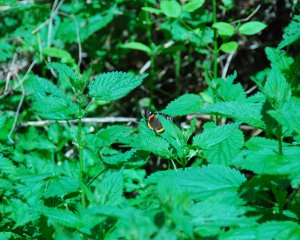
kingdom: Animalia
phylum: Arthropoda
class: Insecta
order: Lepidoptera
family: Nymphalidae
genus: Vanessa
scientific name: Vanessa atalanta
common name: Red Admiral
